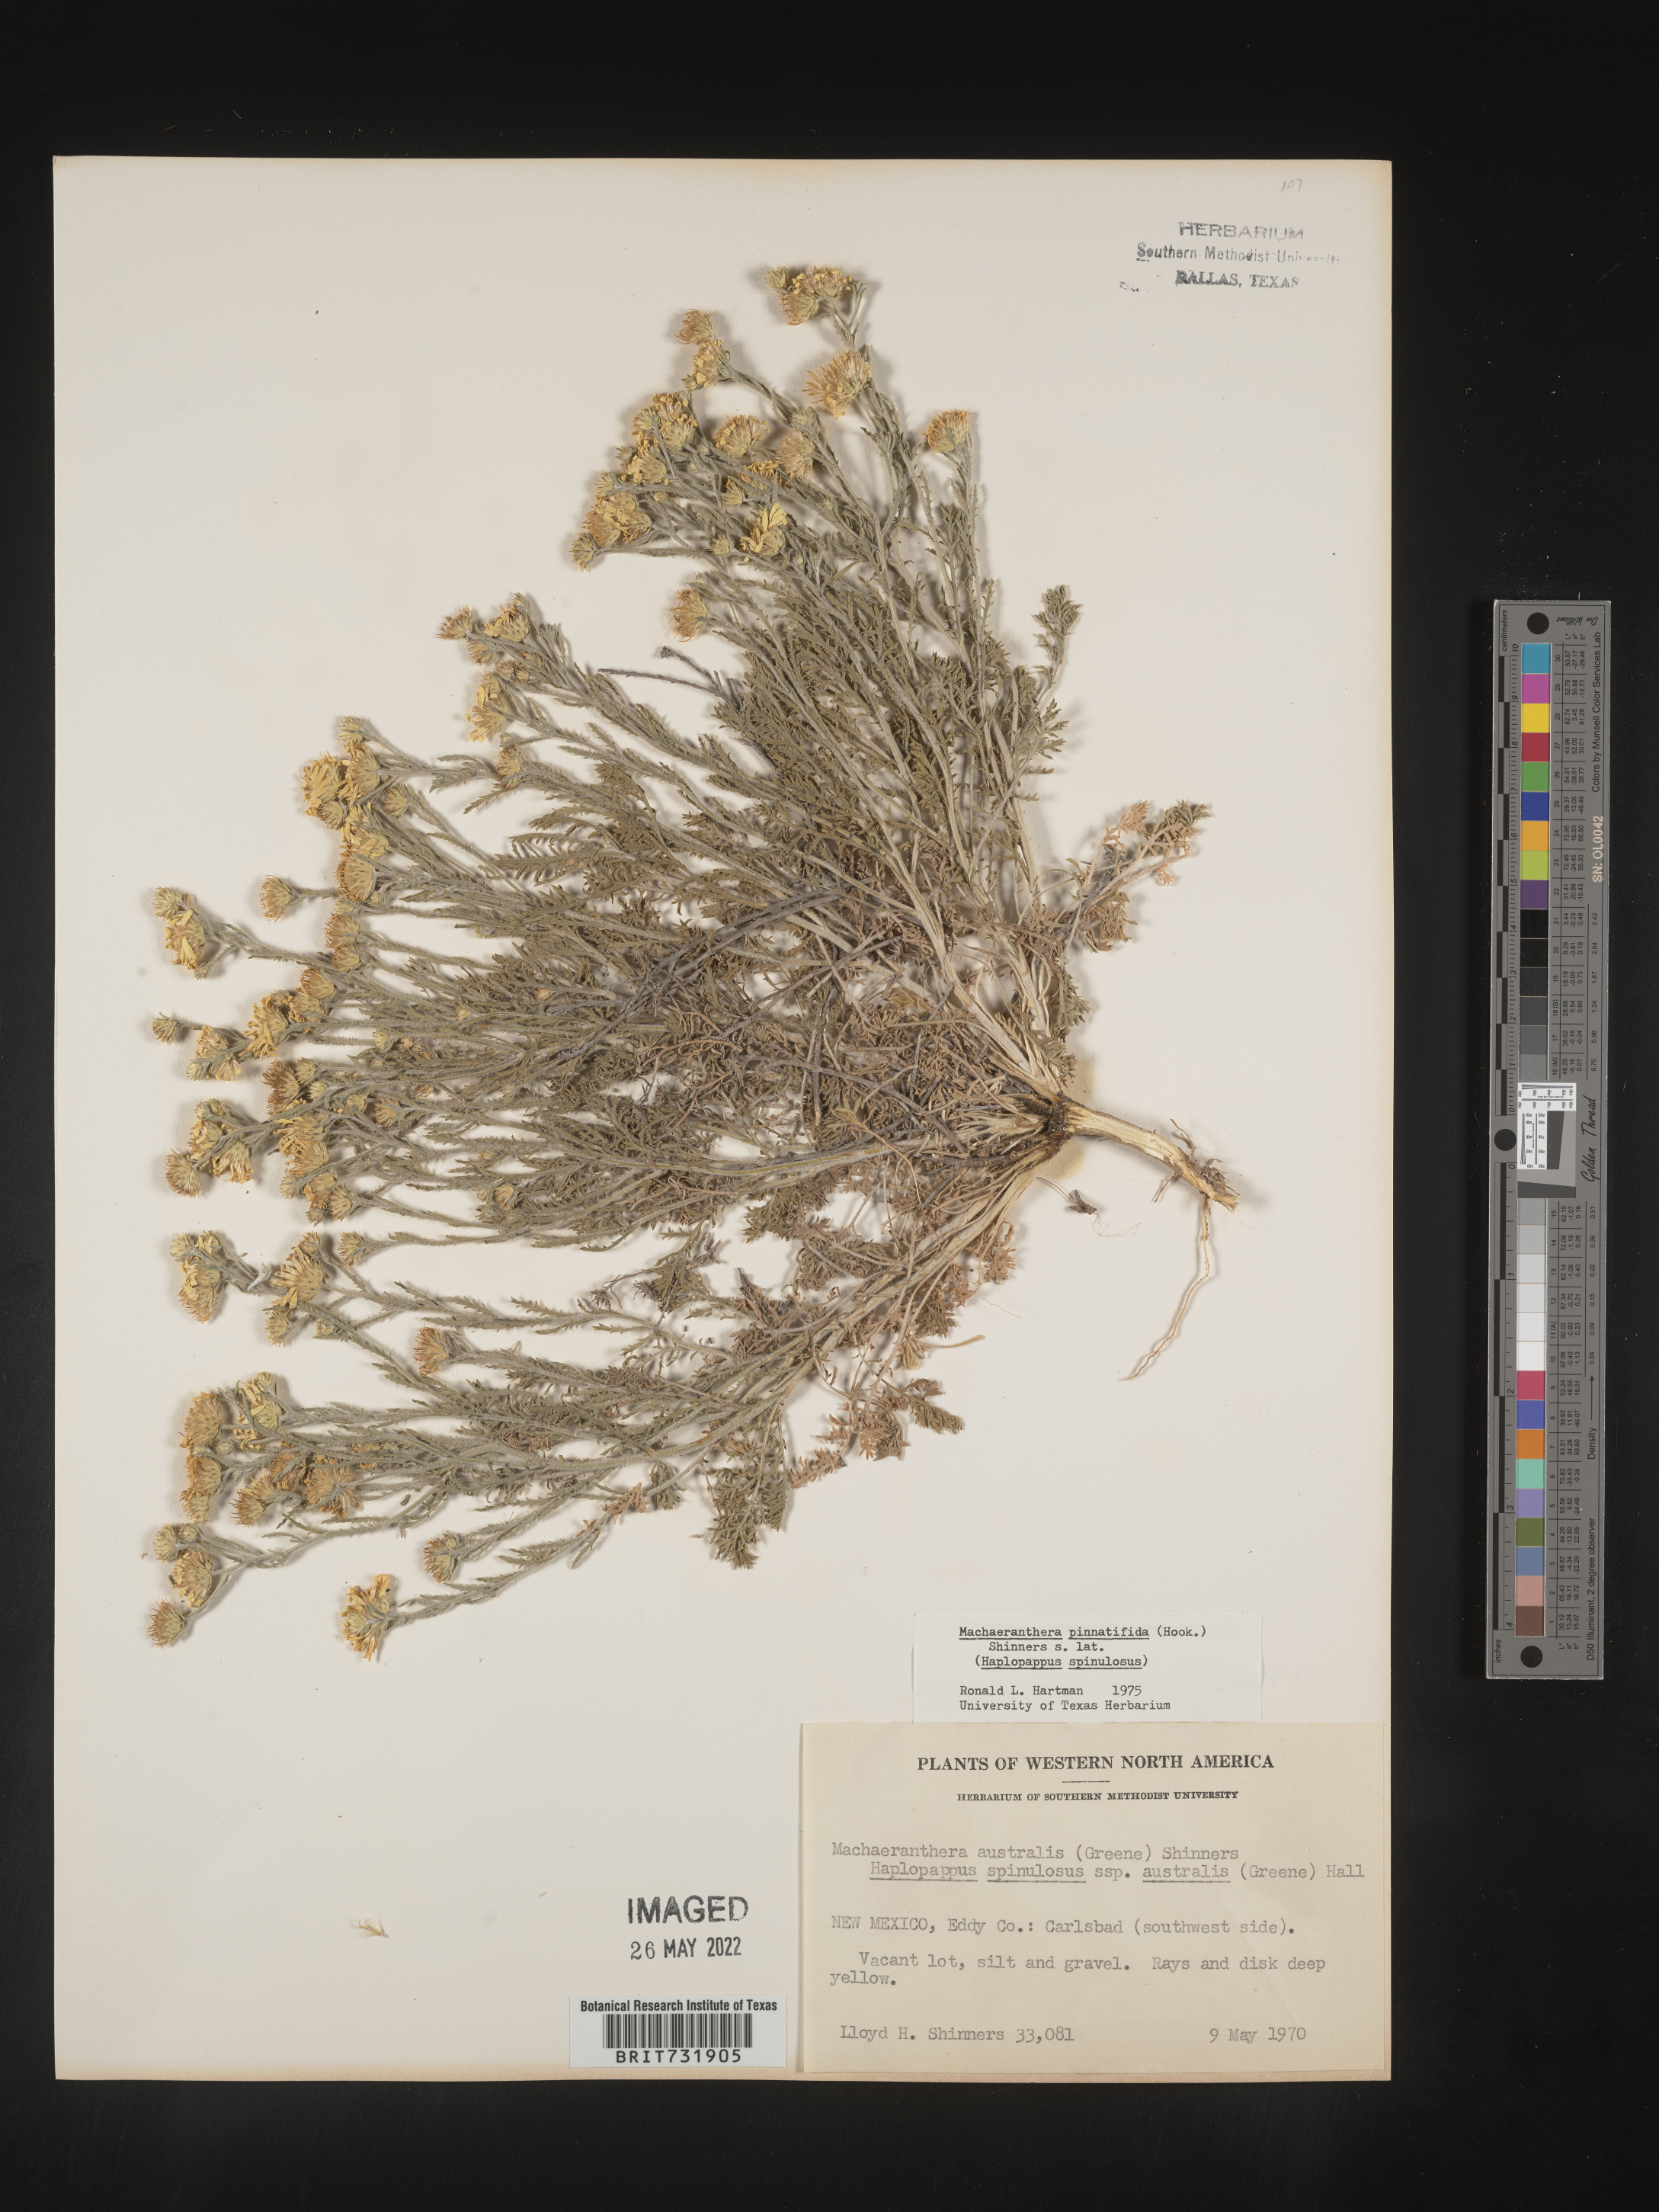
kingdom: Plantae
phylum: Tracheophyta
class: Magnoliopsida
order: Asterales
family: Asteraceae
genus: Xanthisma
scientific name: Xanthisma spinulosum
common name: Spiny goldenweed
